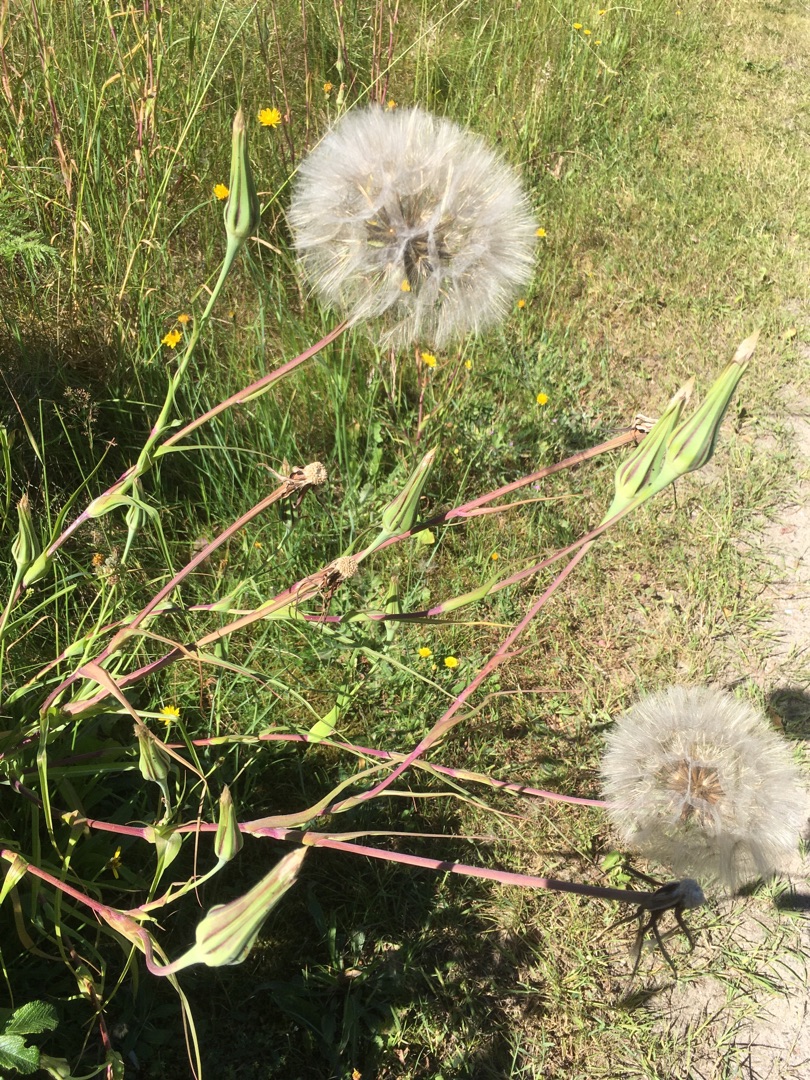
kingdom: Plantae
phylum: Tracheophyta
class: Magnoliopsida
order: Asterales
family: Asteraceae
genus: Tragopogon
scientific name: Tragopogon pratensis
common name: Gedeskæg
